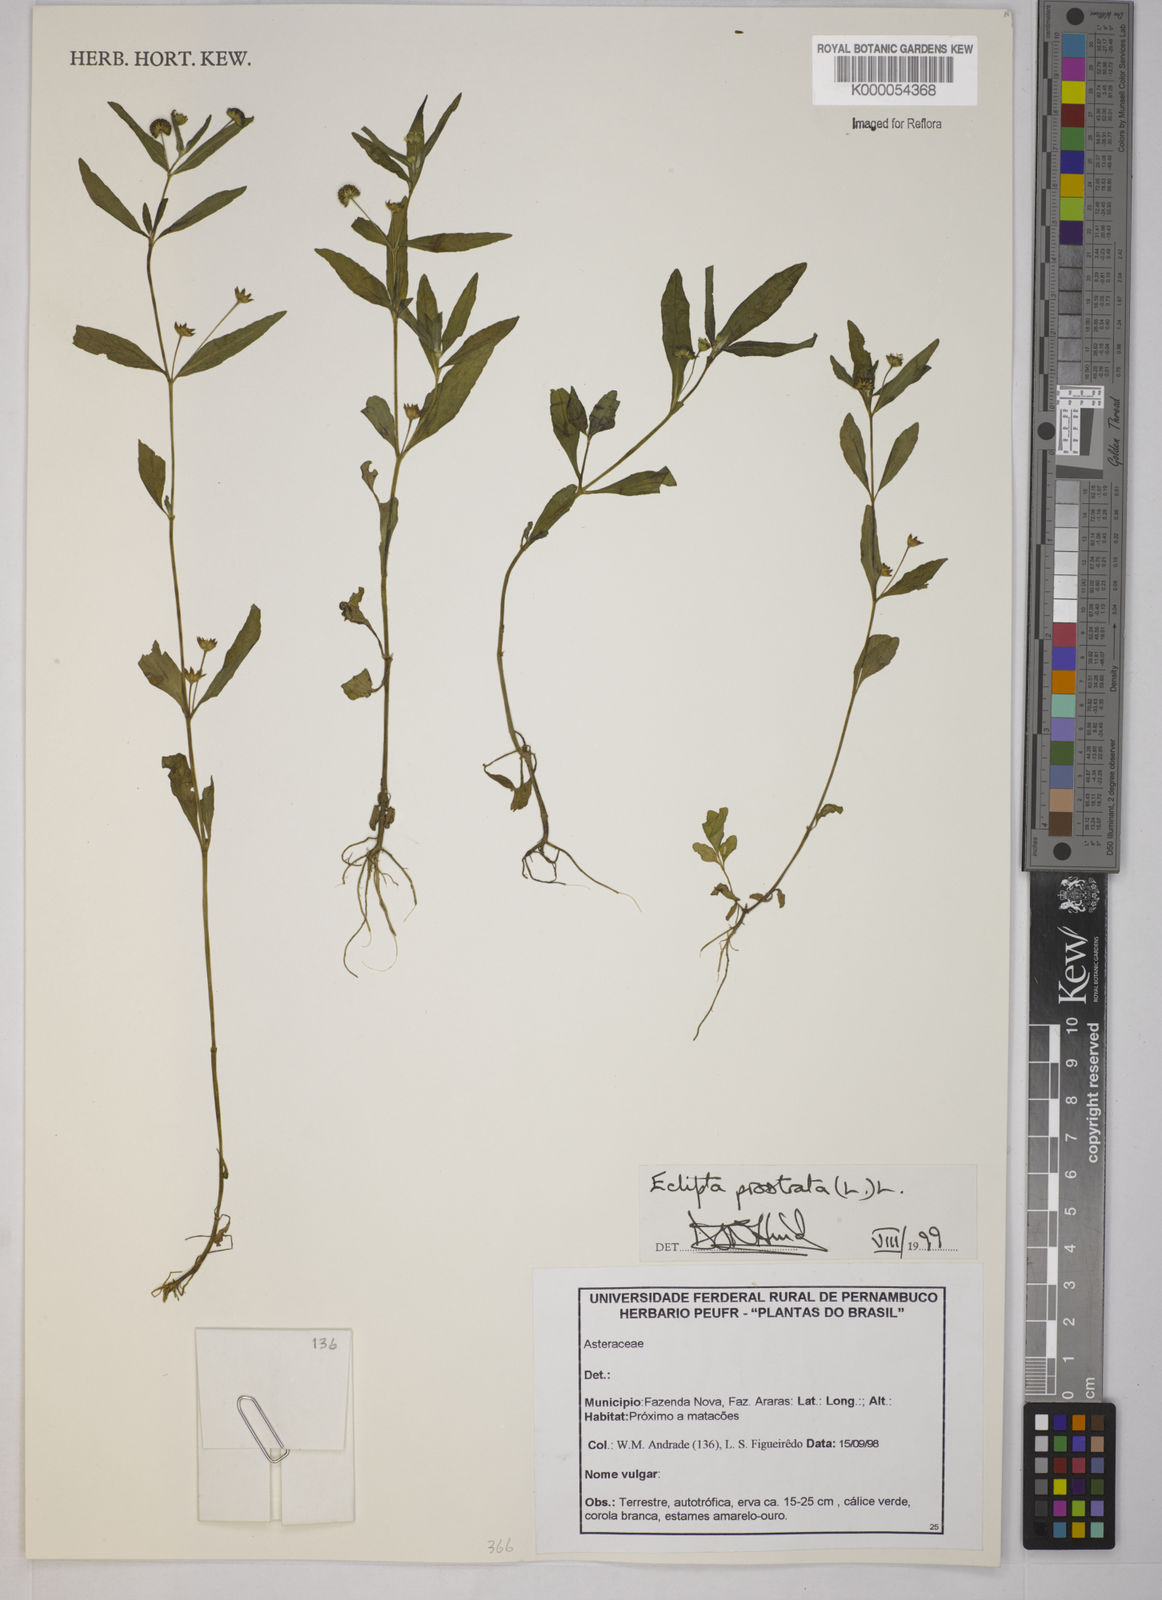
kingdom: Plantae
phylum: Tracheophyta
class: Magnoliopsida
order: Asterales
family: Asteraceae
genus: Eclipta
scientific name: Eclipta prostrata
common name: False daisy
